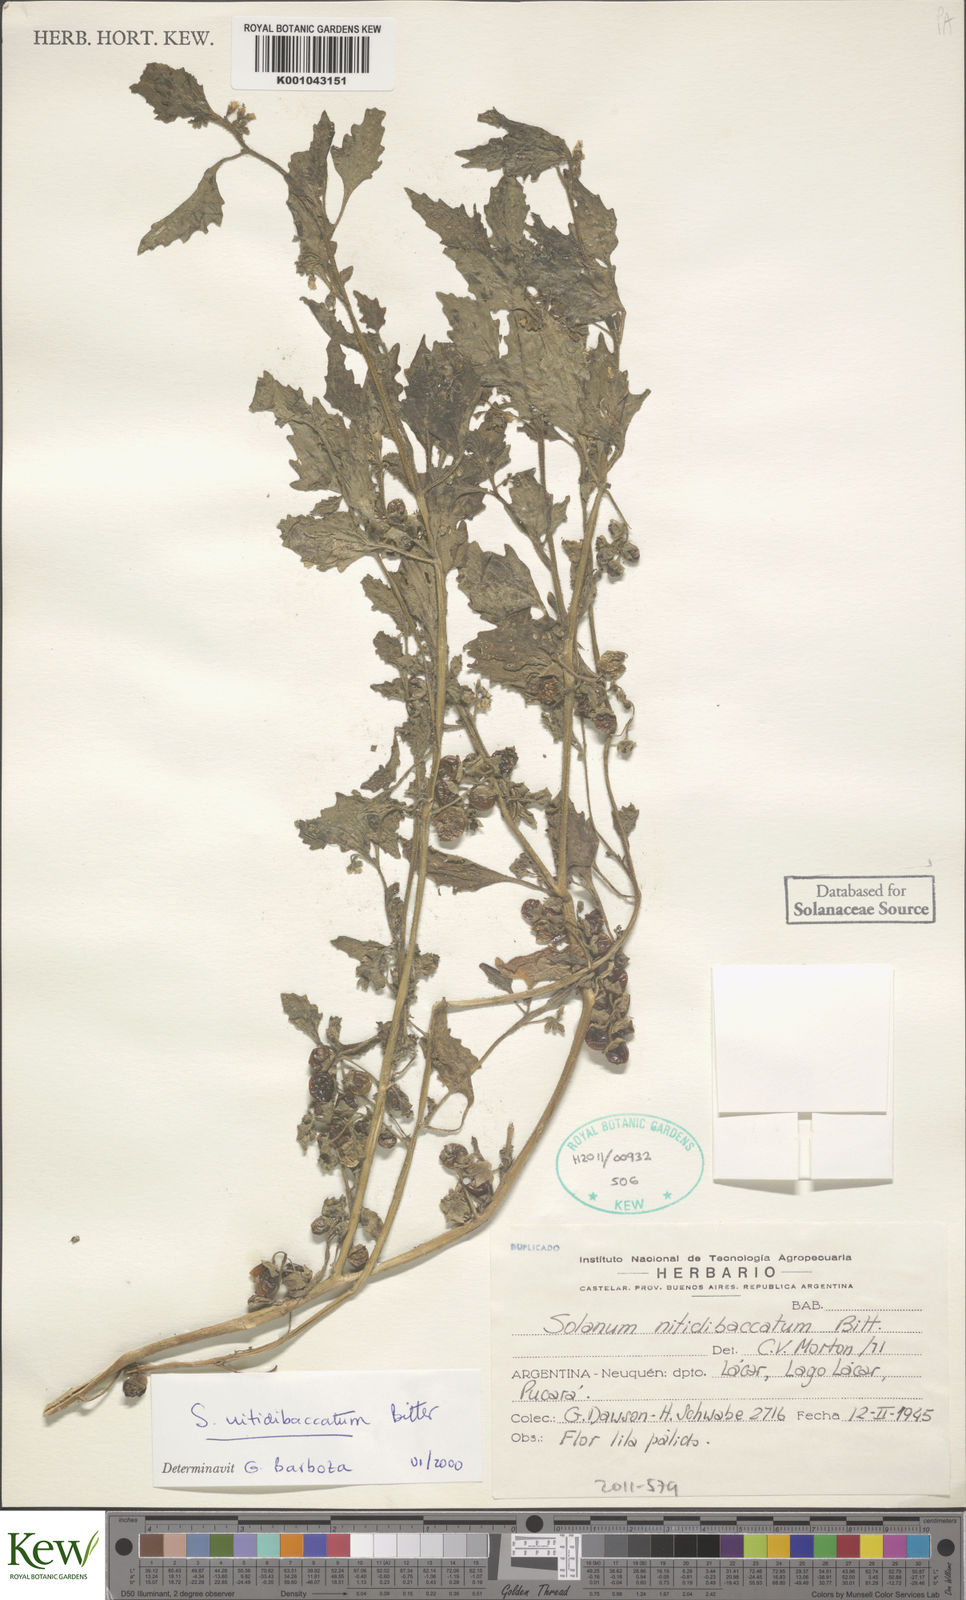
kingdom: Plantae
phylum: Tracheophyta
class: Magnoliopsida
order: Solanales
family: Solanaceae
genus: Solanum
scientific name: Solanum nitidibaccatum
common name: Hairy nightshade
